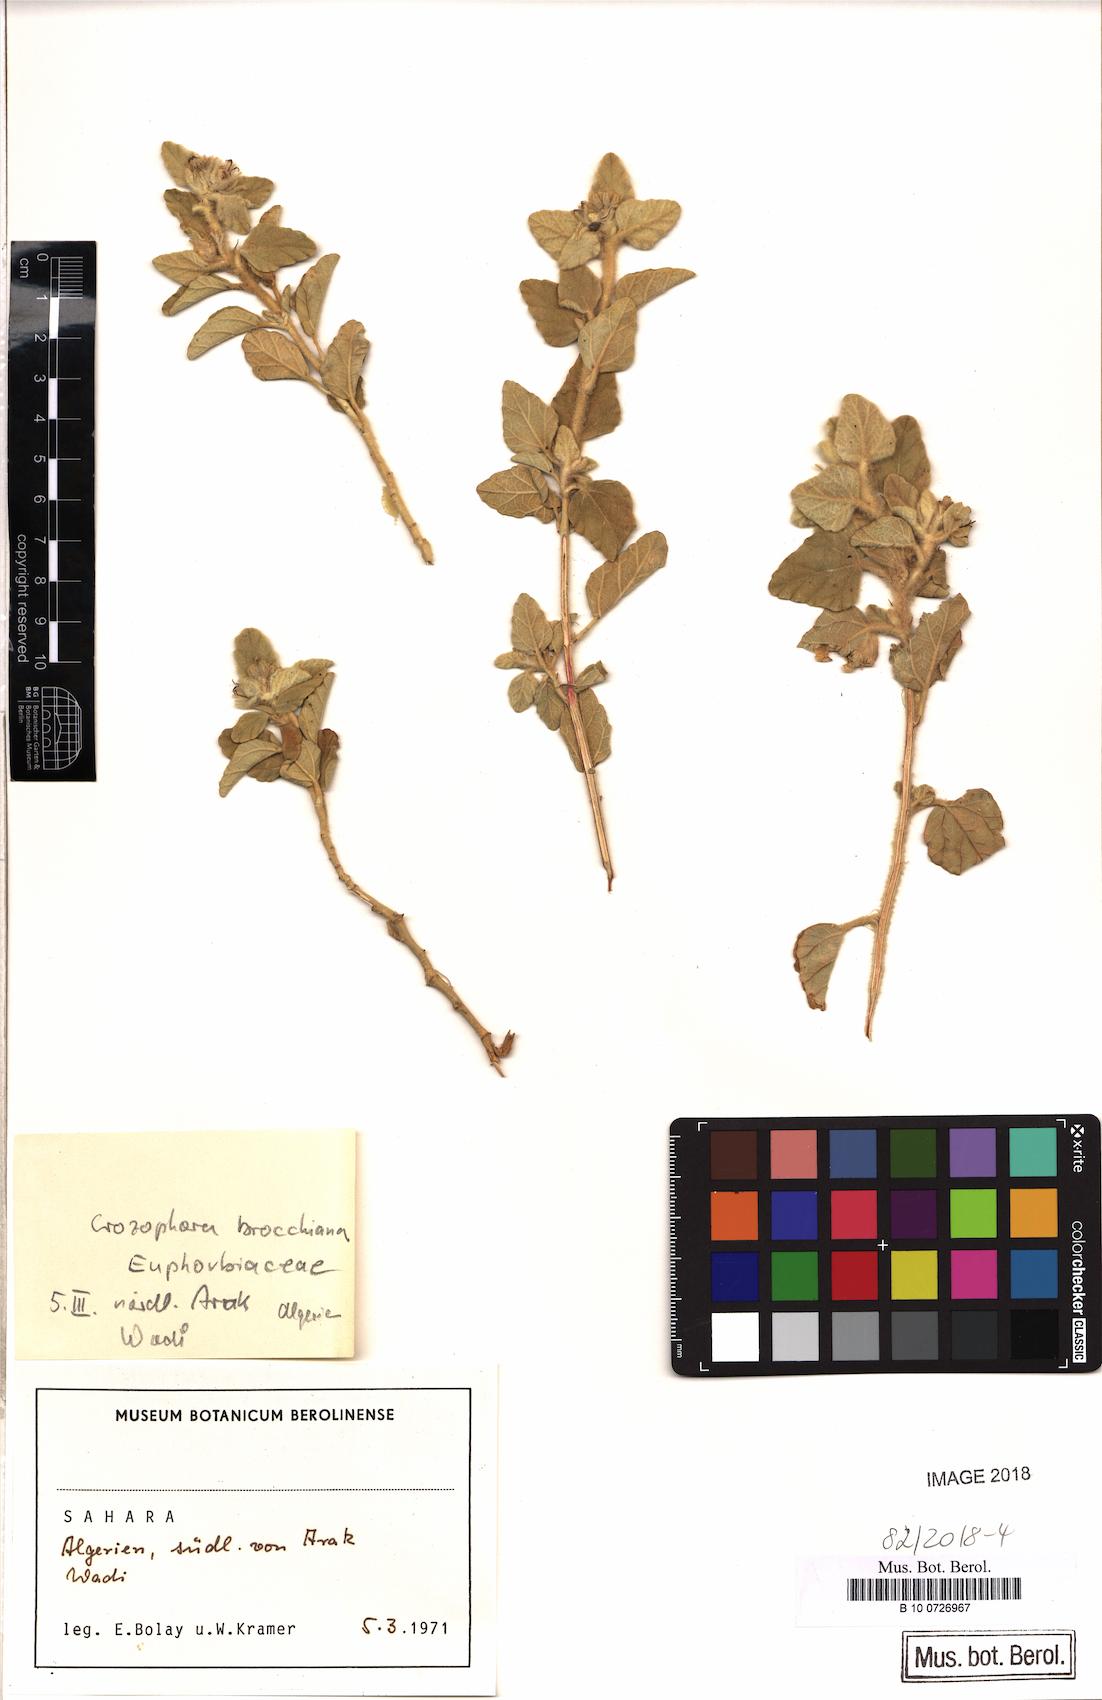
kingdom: Plantae
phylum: Tracheophyta
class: Magnoliopsida
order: Malpighiales
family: Euphorbiaceae
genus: Chrozophora
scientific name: Chrozophora brocchiana
